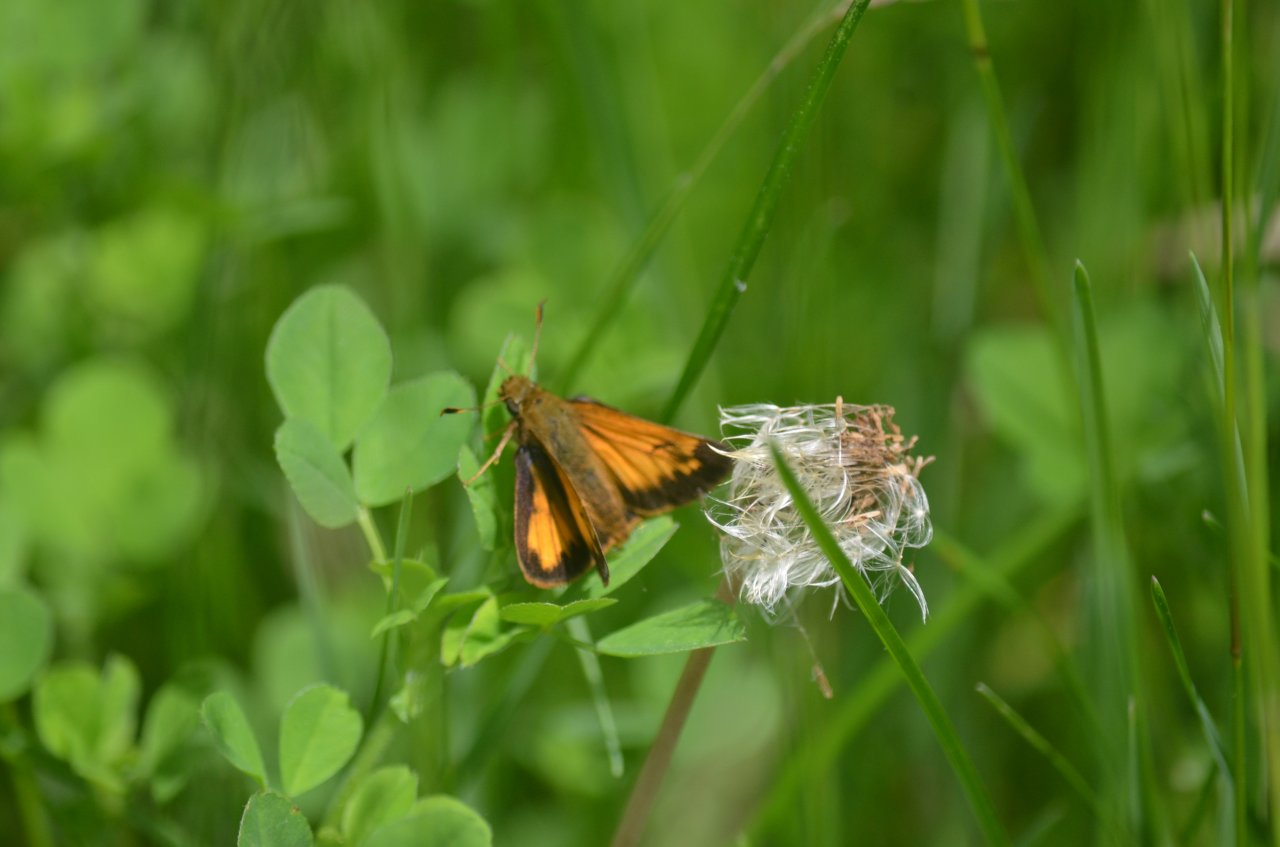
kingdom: Animalia
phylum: Arthropoda
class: Insecta
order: Lepidoptera
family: Hesperiidae
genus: Lon
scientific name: Lon hobomok
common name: Hobomok Skipper
